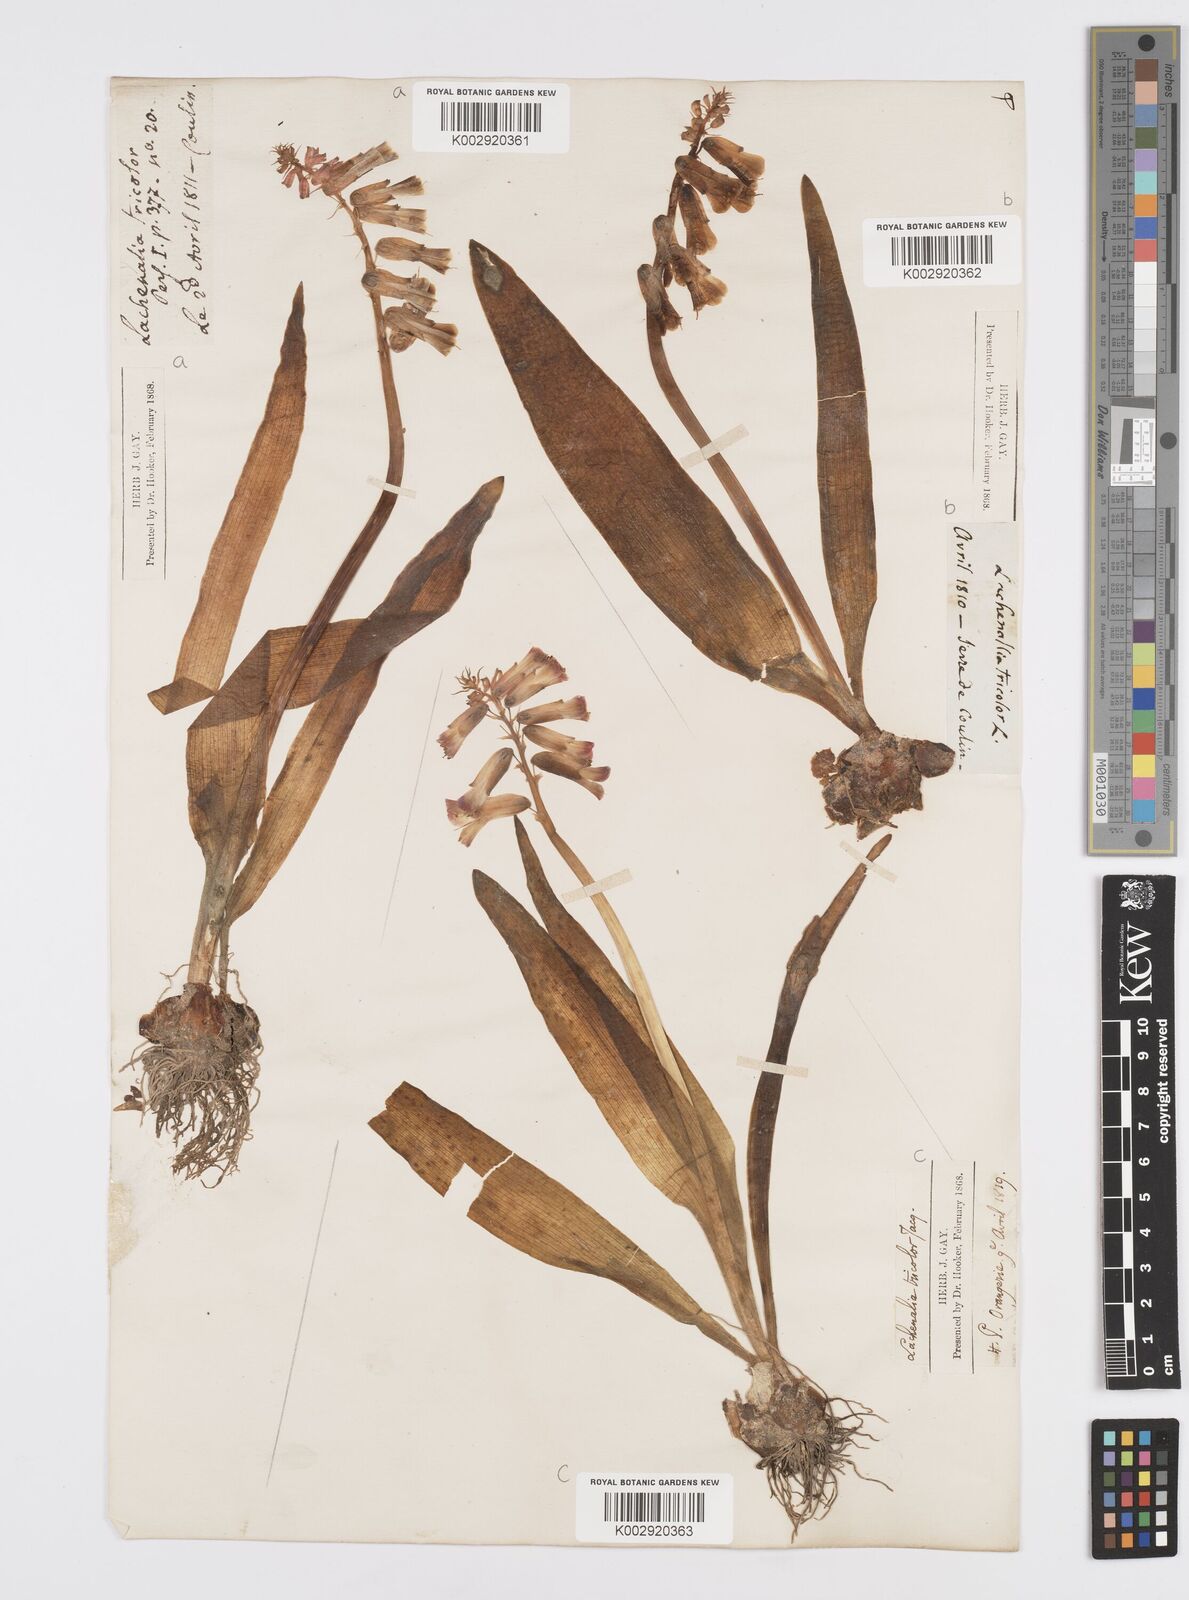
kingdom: Plantae
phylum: Tracheophyta
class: Liliopsida
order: Asparagales
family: Asparagaceae
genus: Lachenalia
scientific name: Lachenalia aloides
